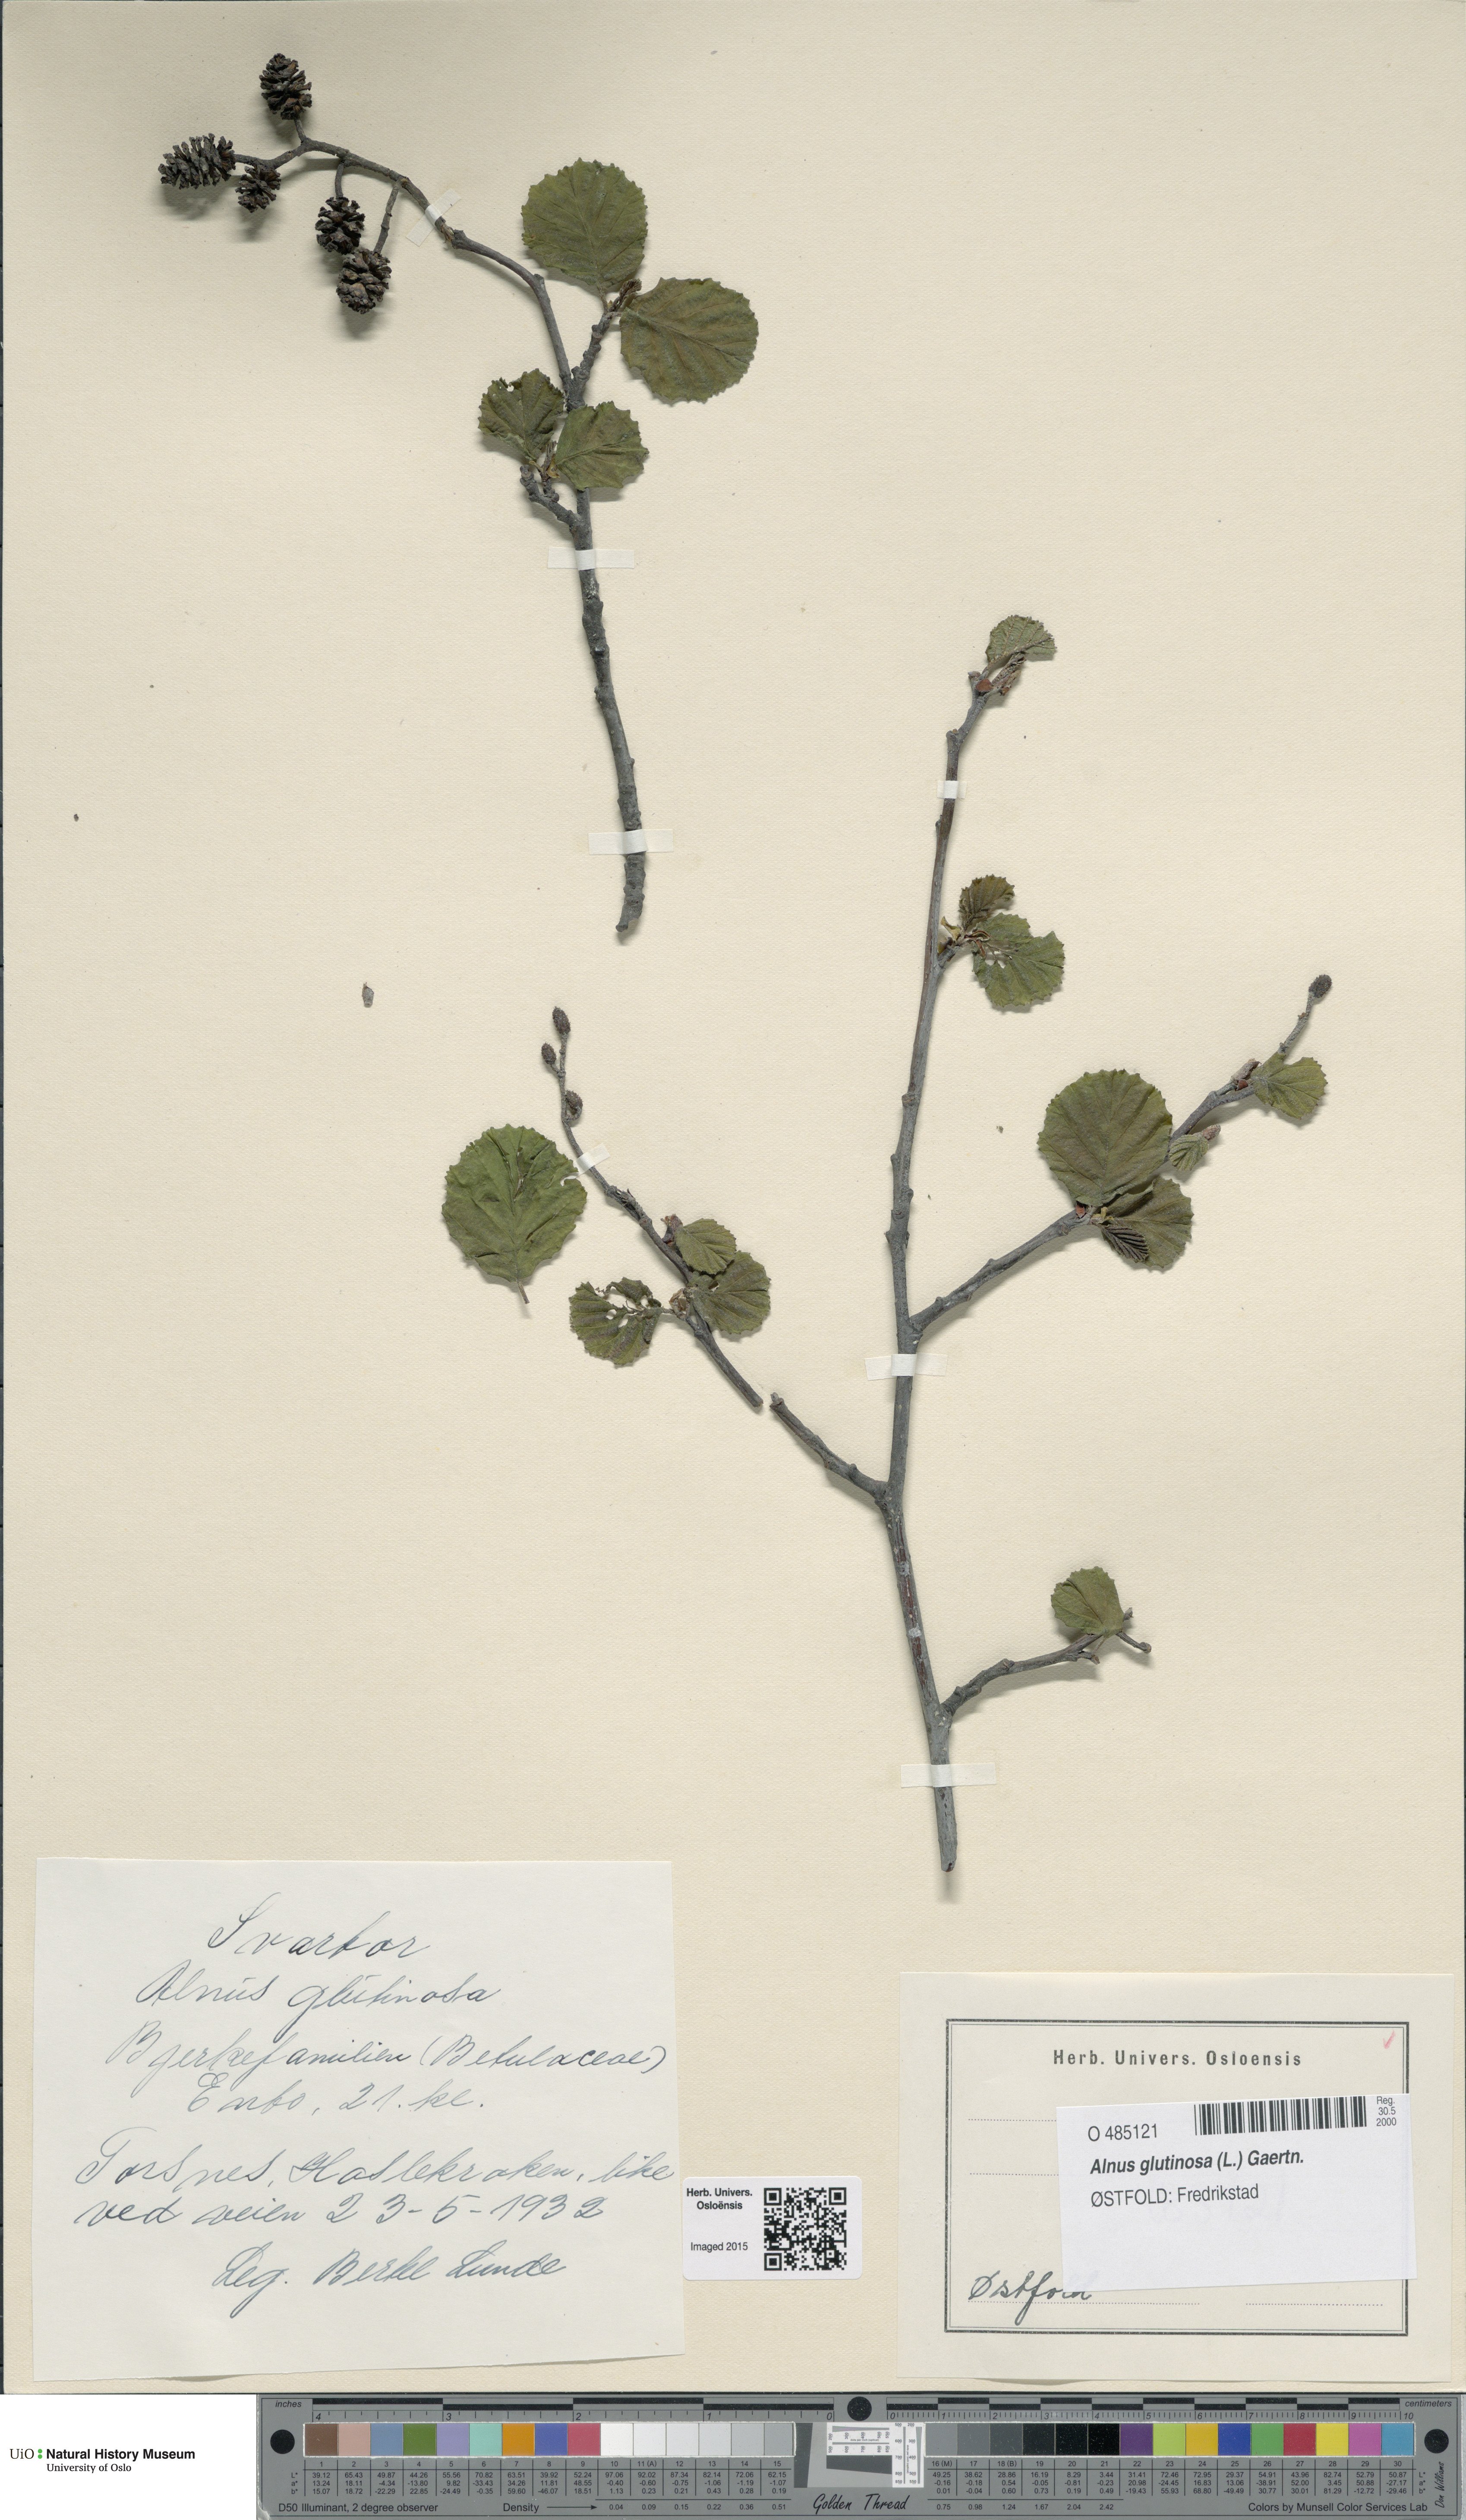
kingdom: Plantae
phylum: Tracheophyta
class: Magnoliopsida
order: Fagales
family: Betulaceae
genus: Alnus
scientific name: Alnus glutinosa
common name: Black alder
